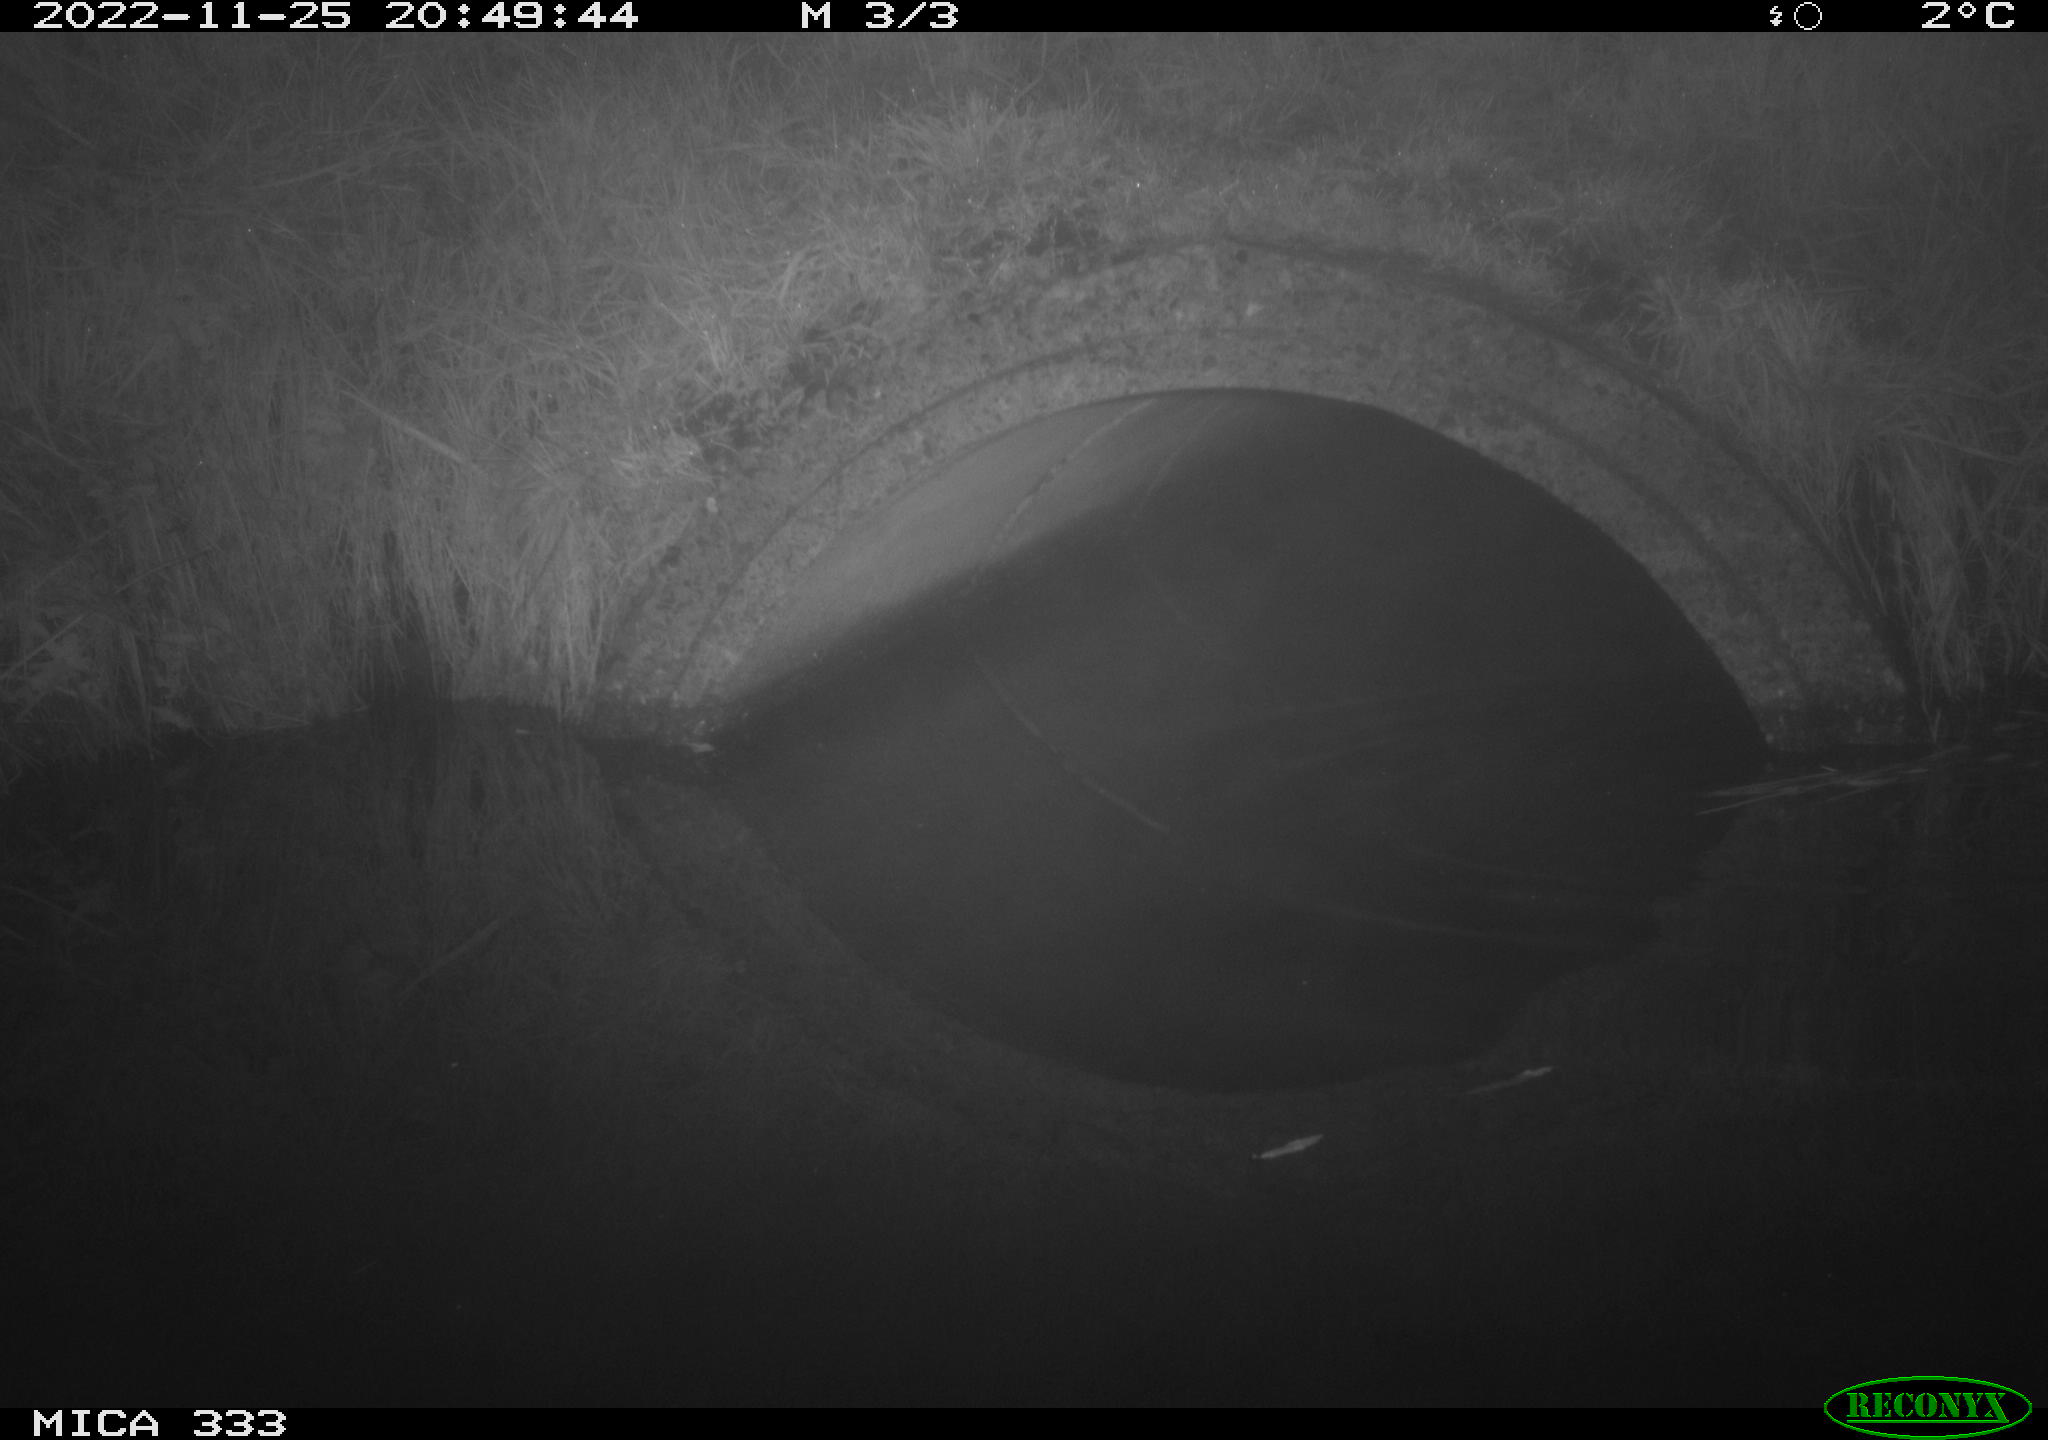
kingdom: Animalia
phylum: Chordata
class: Mammalia
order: Rodentia
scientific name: Rodentia
